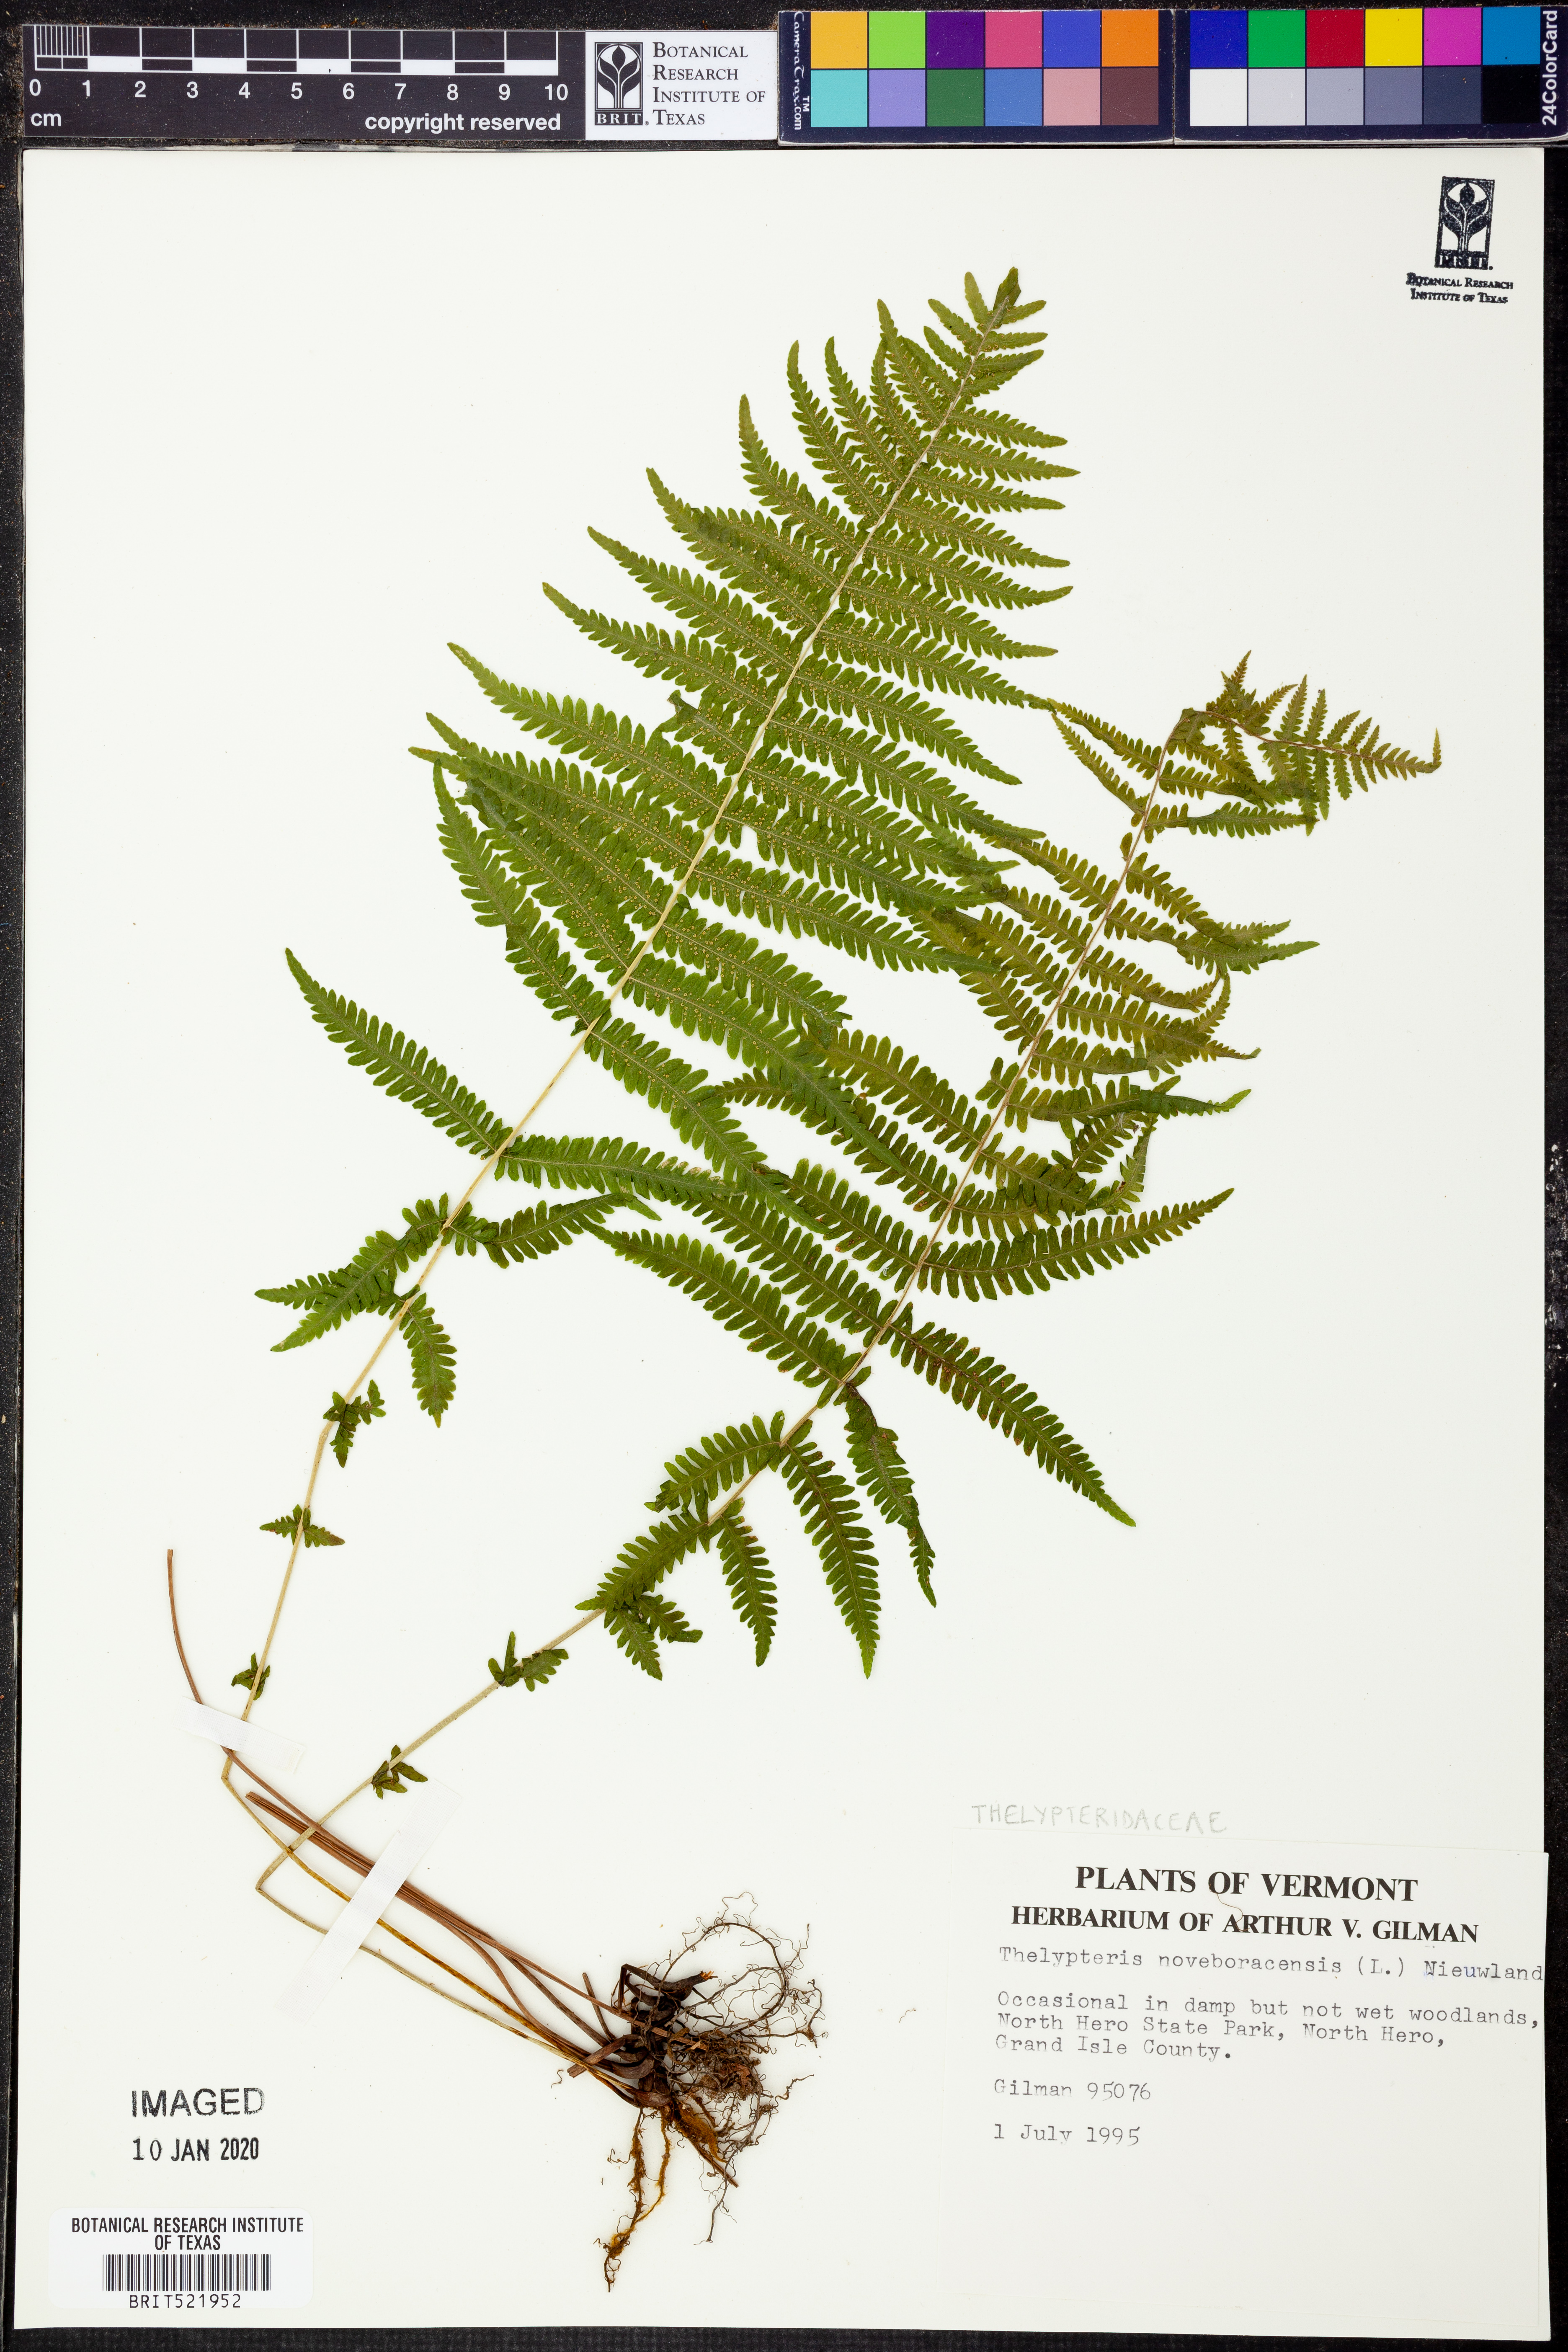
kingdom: Plantae
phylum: Tracheophyta
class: Polypodiopsida
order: Polypodiales
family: Thelypteridaceae
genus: Amauropelta
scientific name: Amauropelta noveboracensis
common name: New york fern
